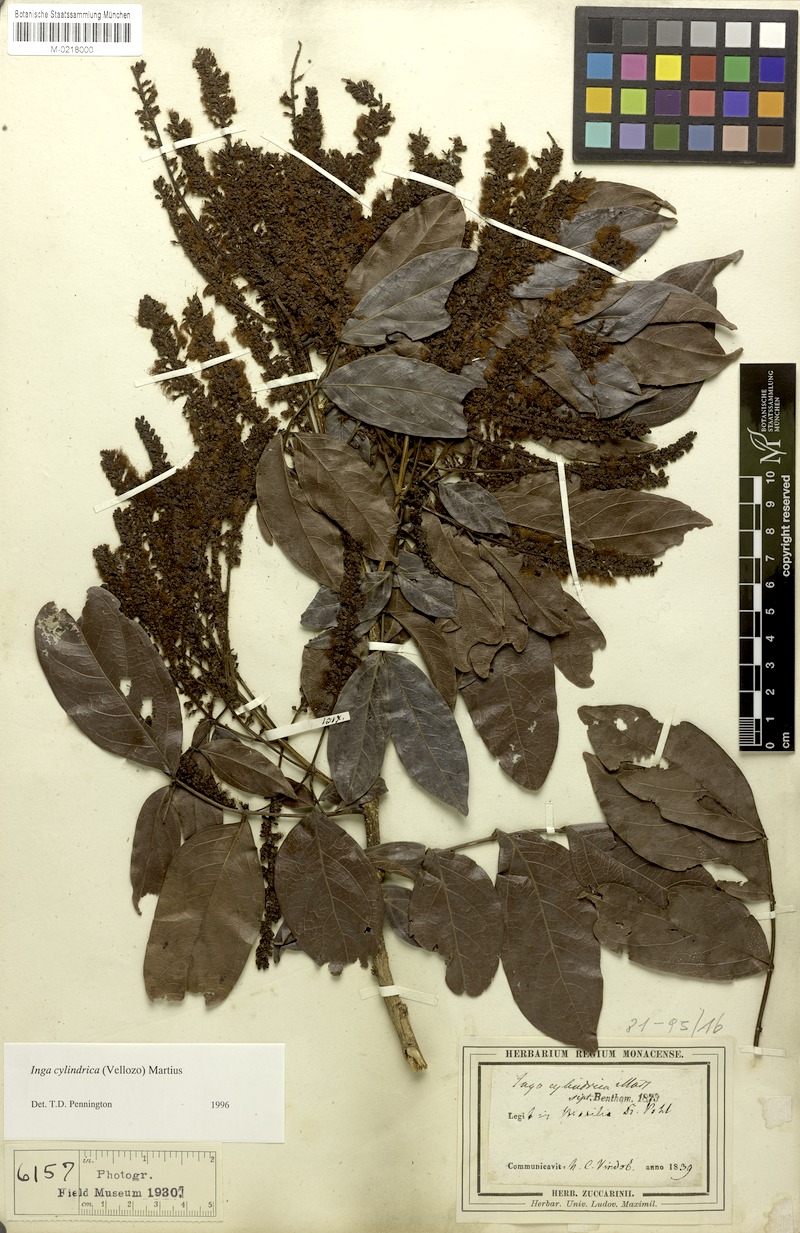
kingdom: Plantae
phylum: Tracheophyta
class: Magnoliopsida
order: Fabales
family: Fabaceae
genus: Inga
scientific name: Inga cylindrica
